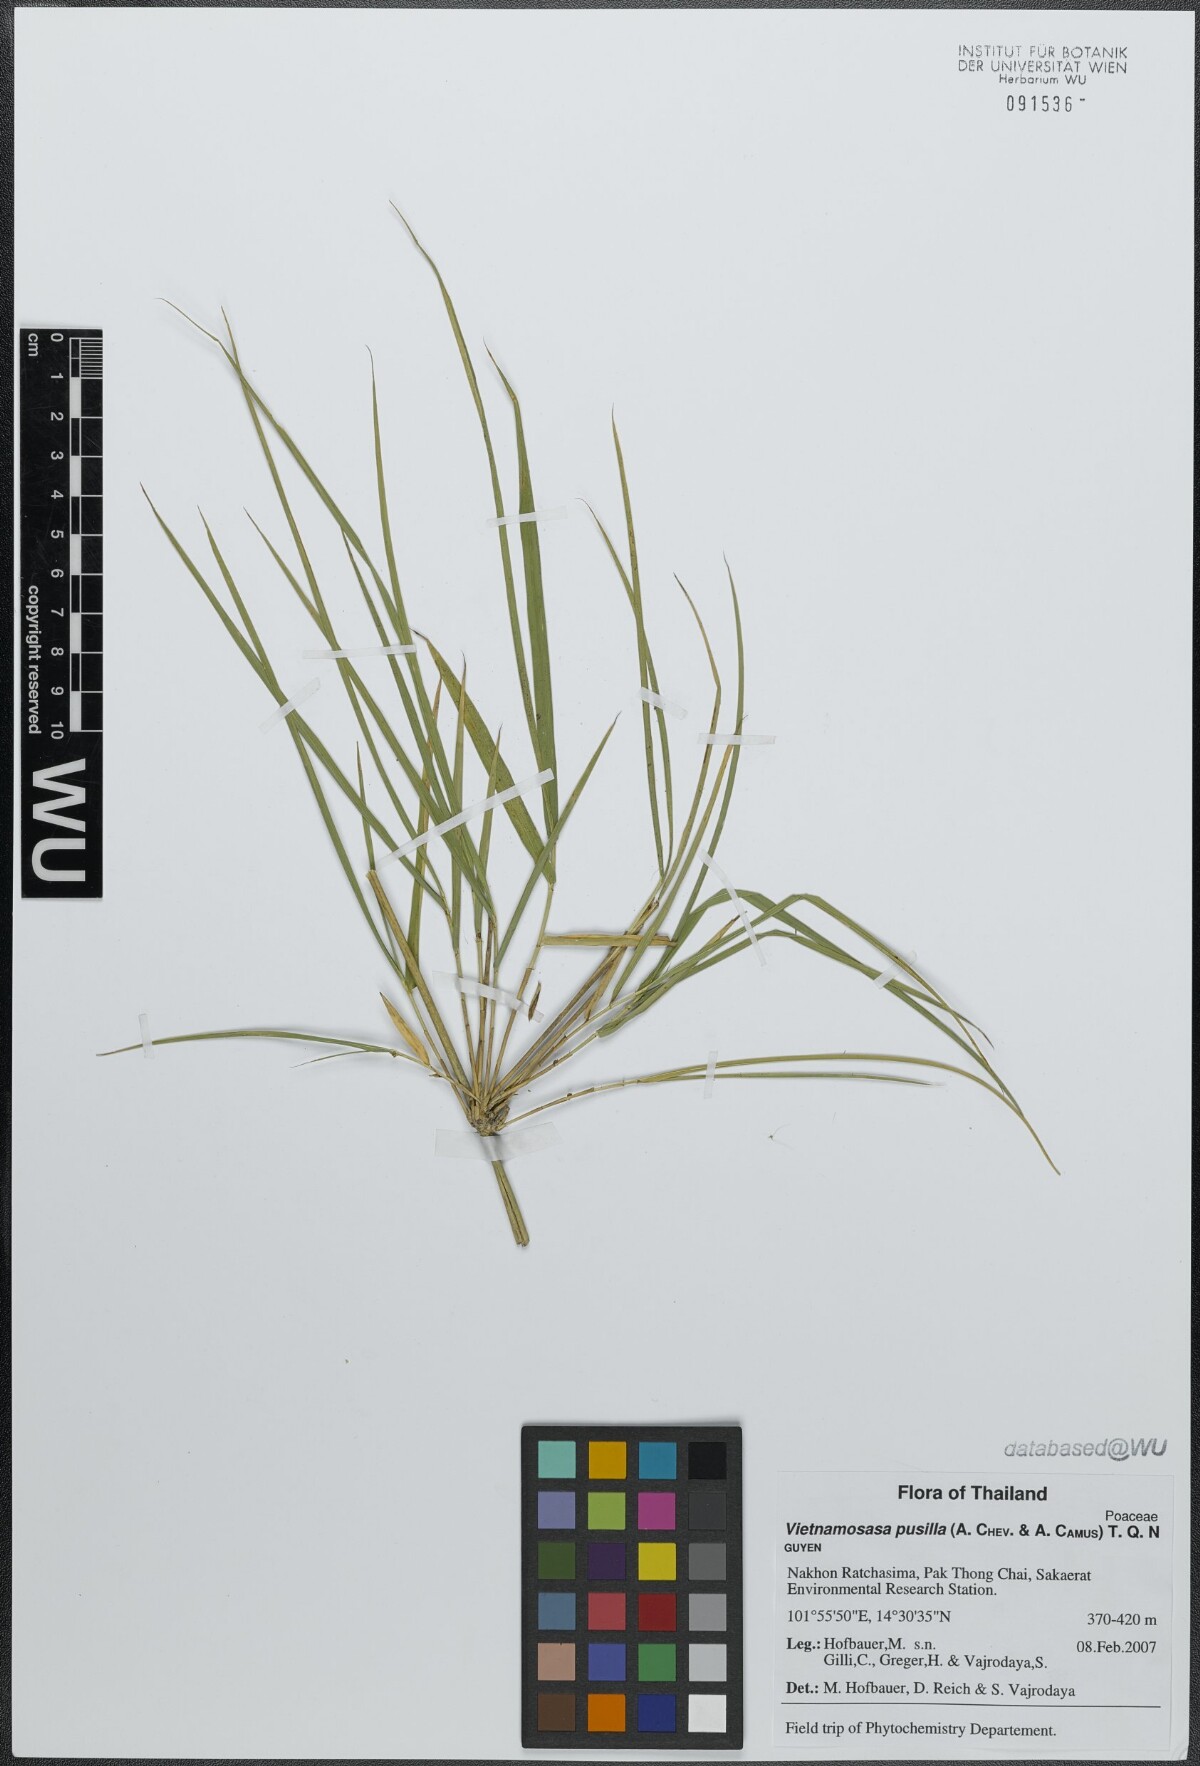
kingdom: Plantae
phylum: Tracheophyta
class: Liliopsida
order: Poales
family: Poaceae
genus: Vietnamosasa
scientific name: Vietnamosasa pusilla
